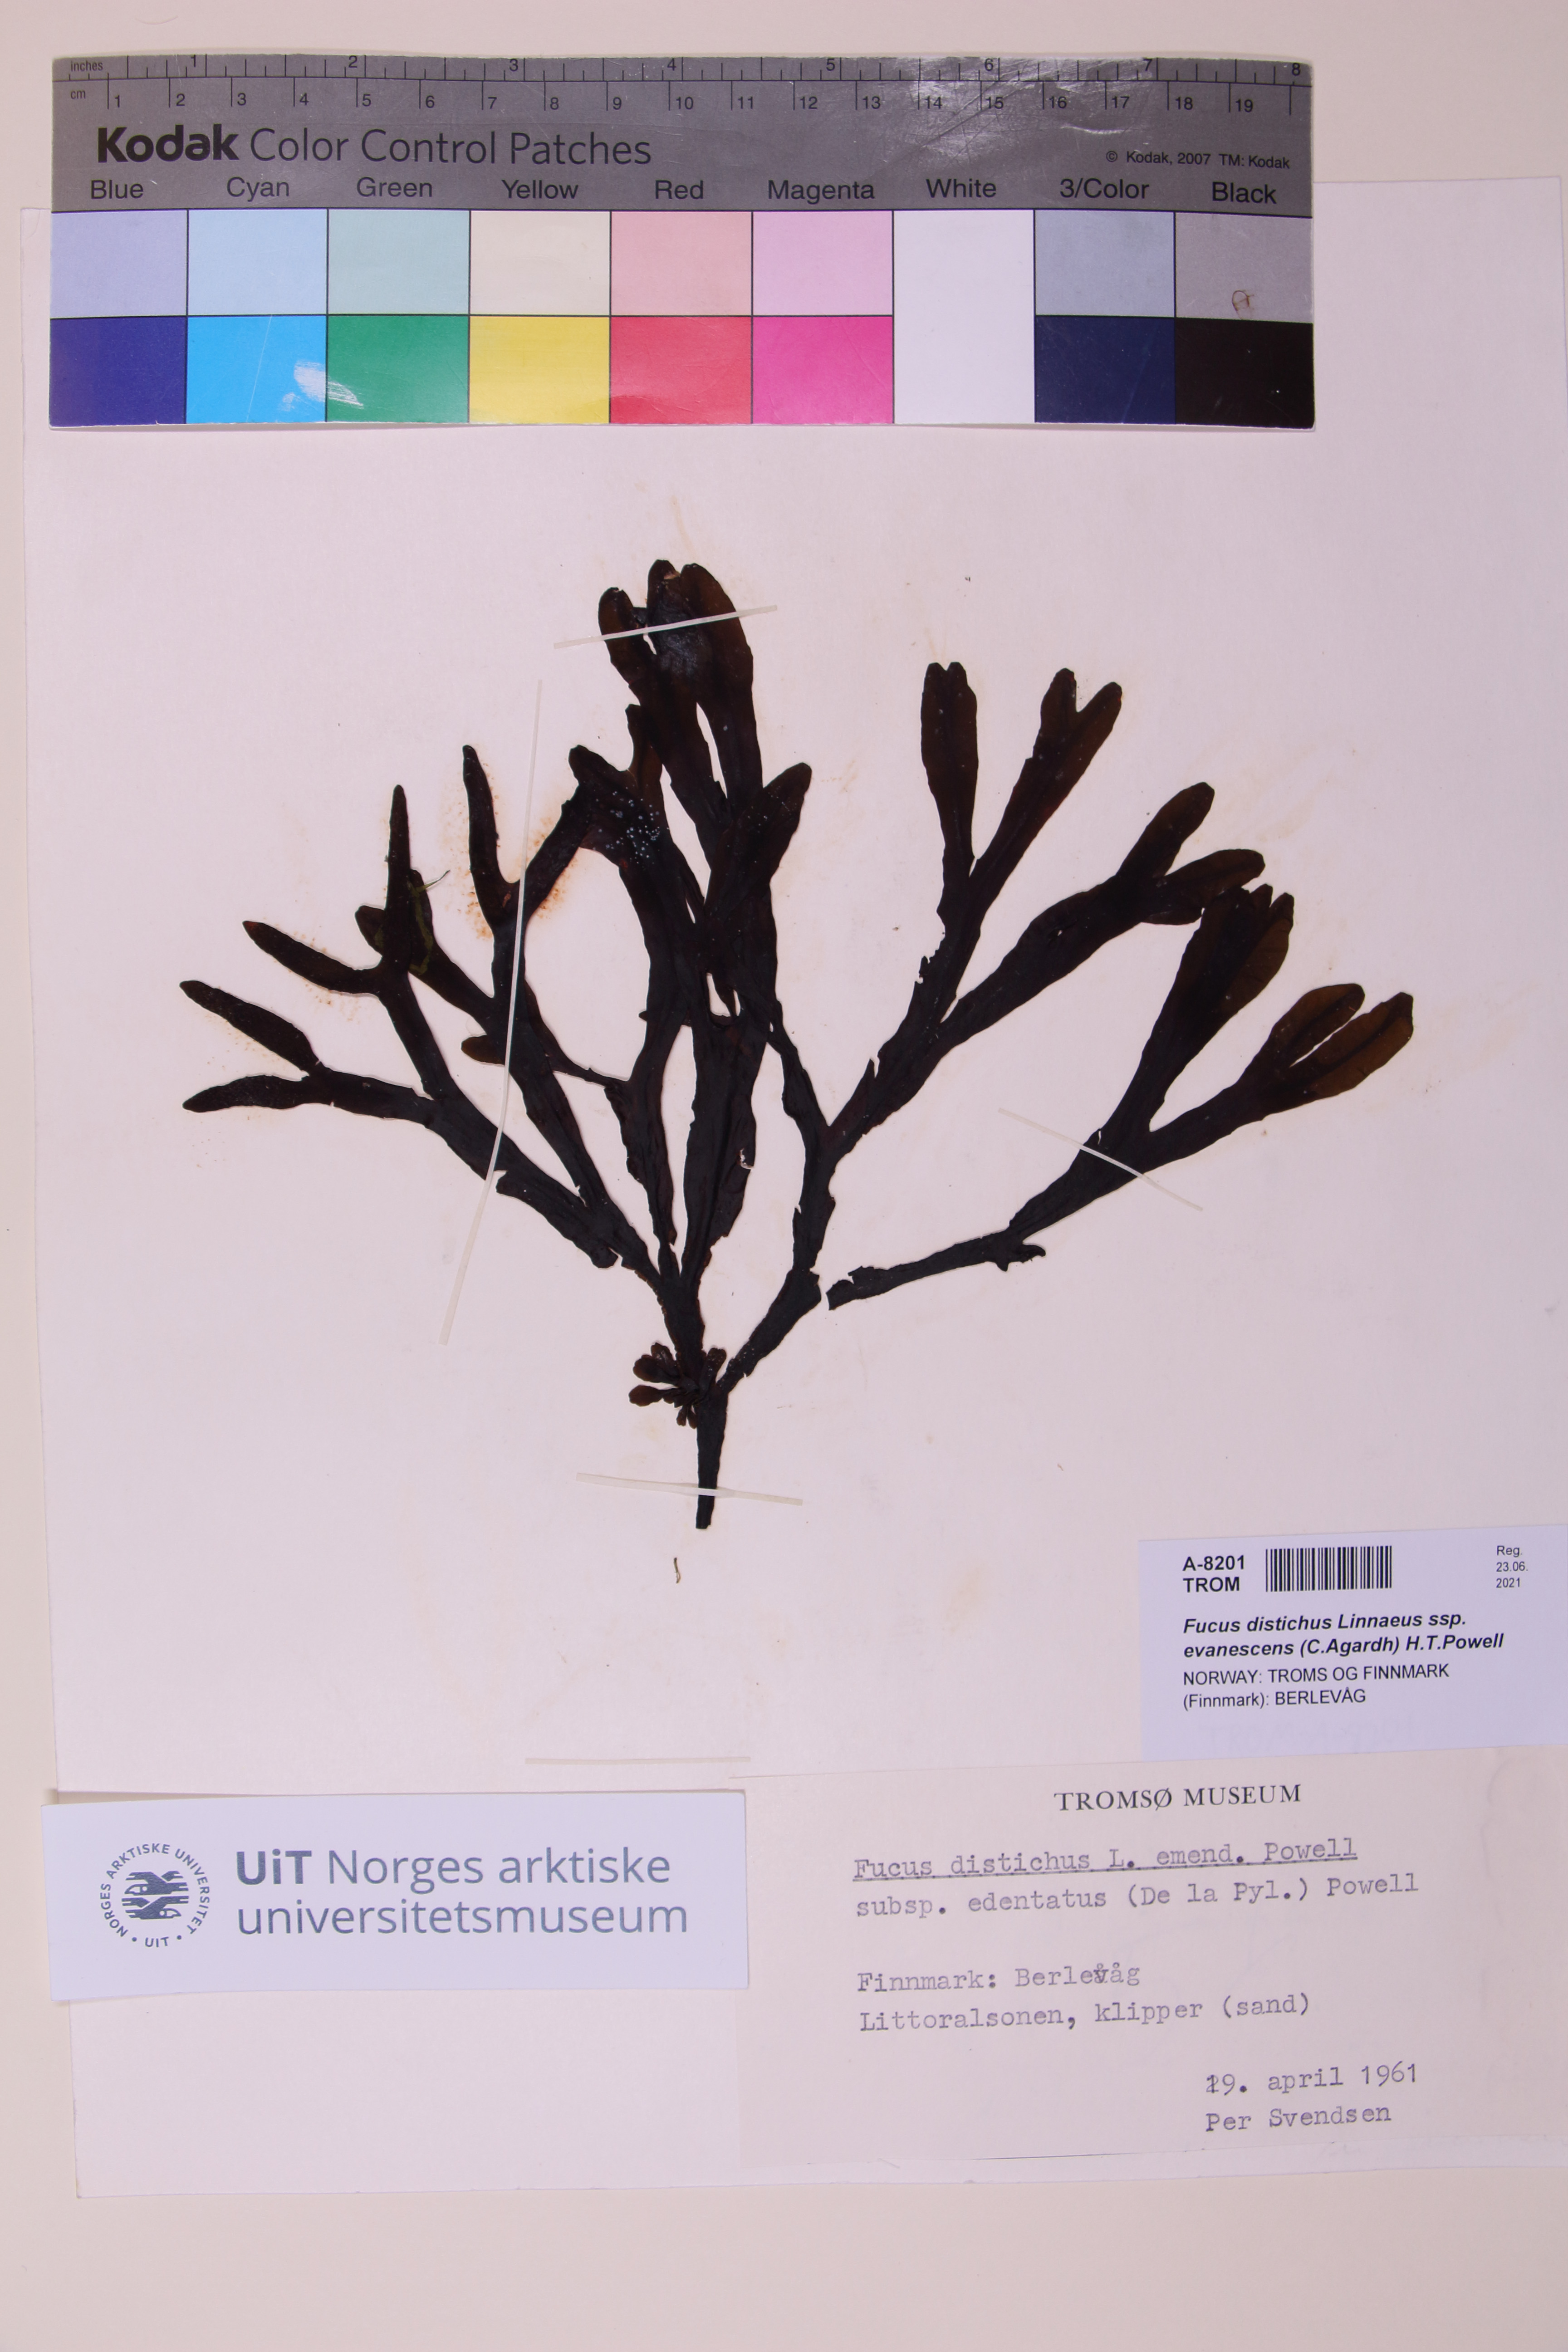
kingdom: Chromista
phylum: Ochrophyta
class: Phaeophyceae
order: Fucales
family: Fucaceae
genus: Fucus
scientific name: Fucus evanescens
